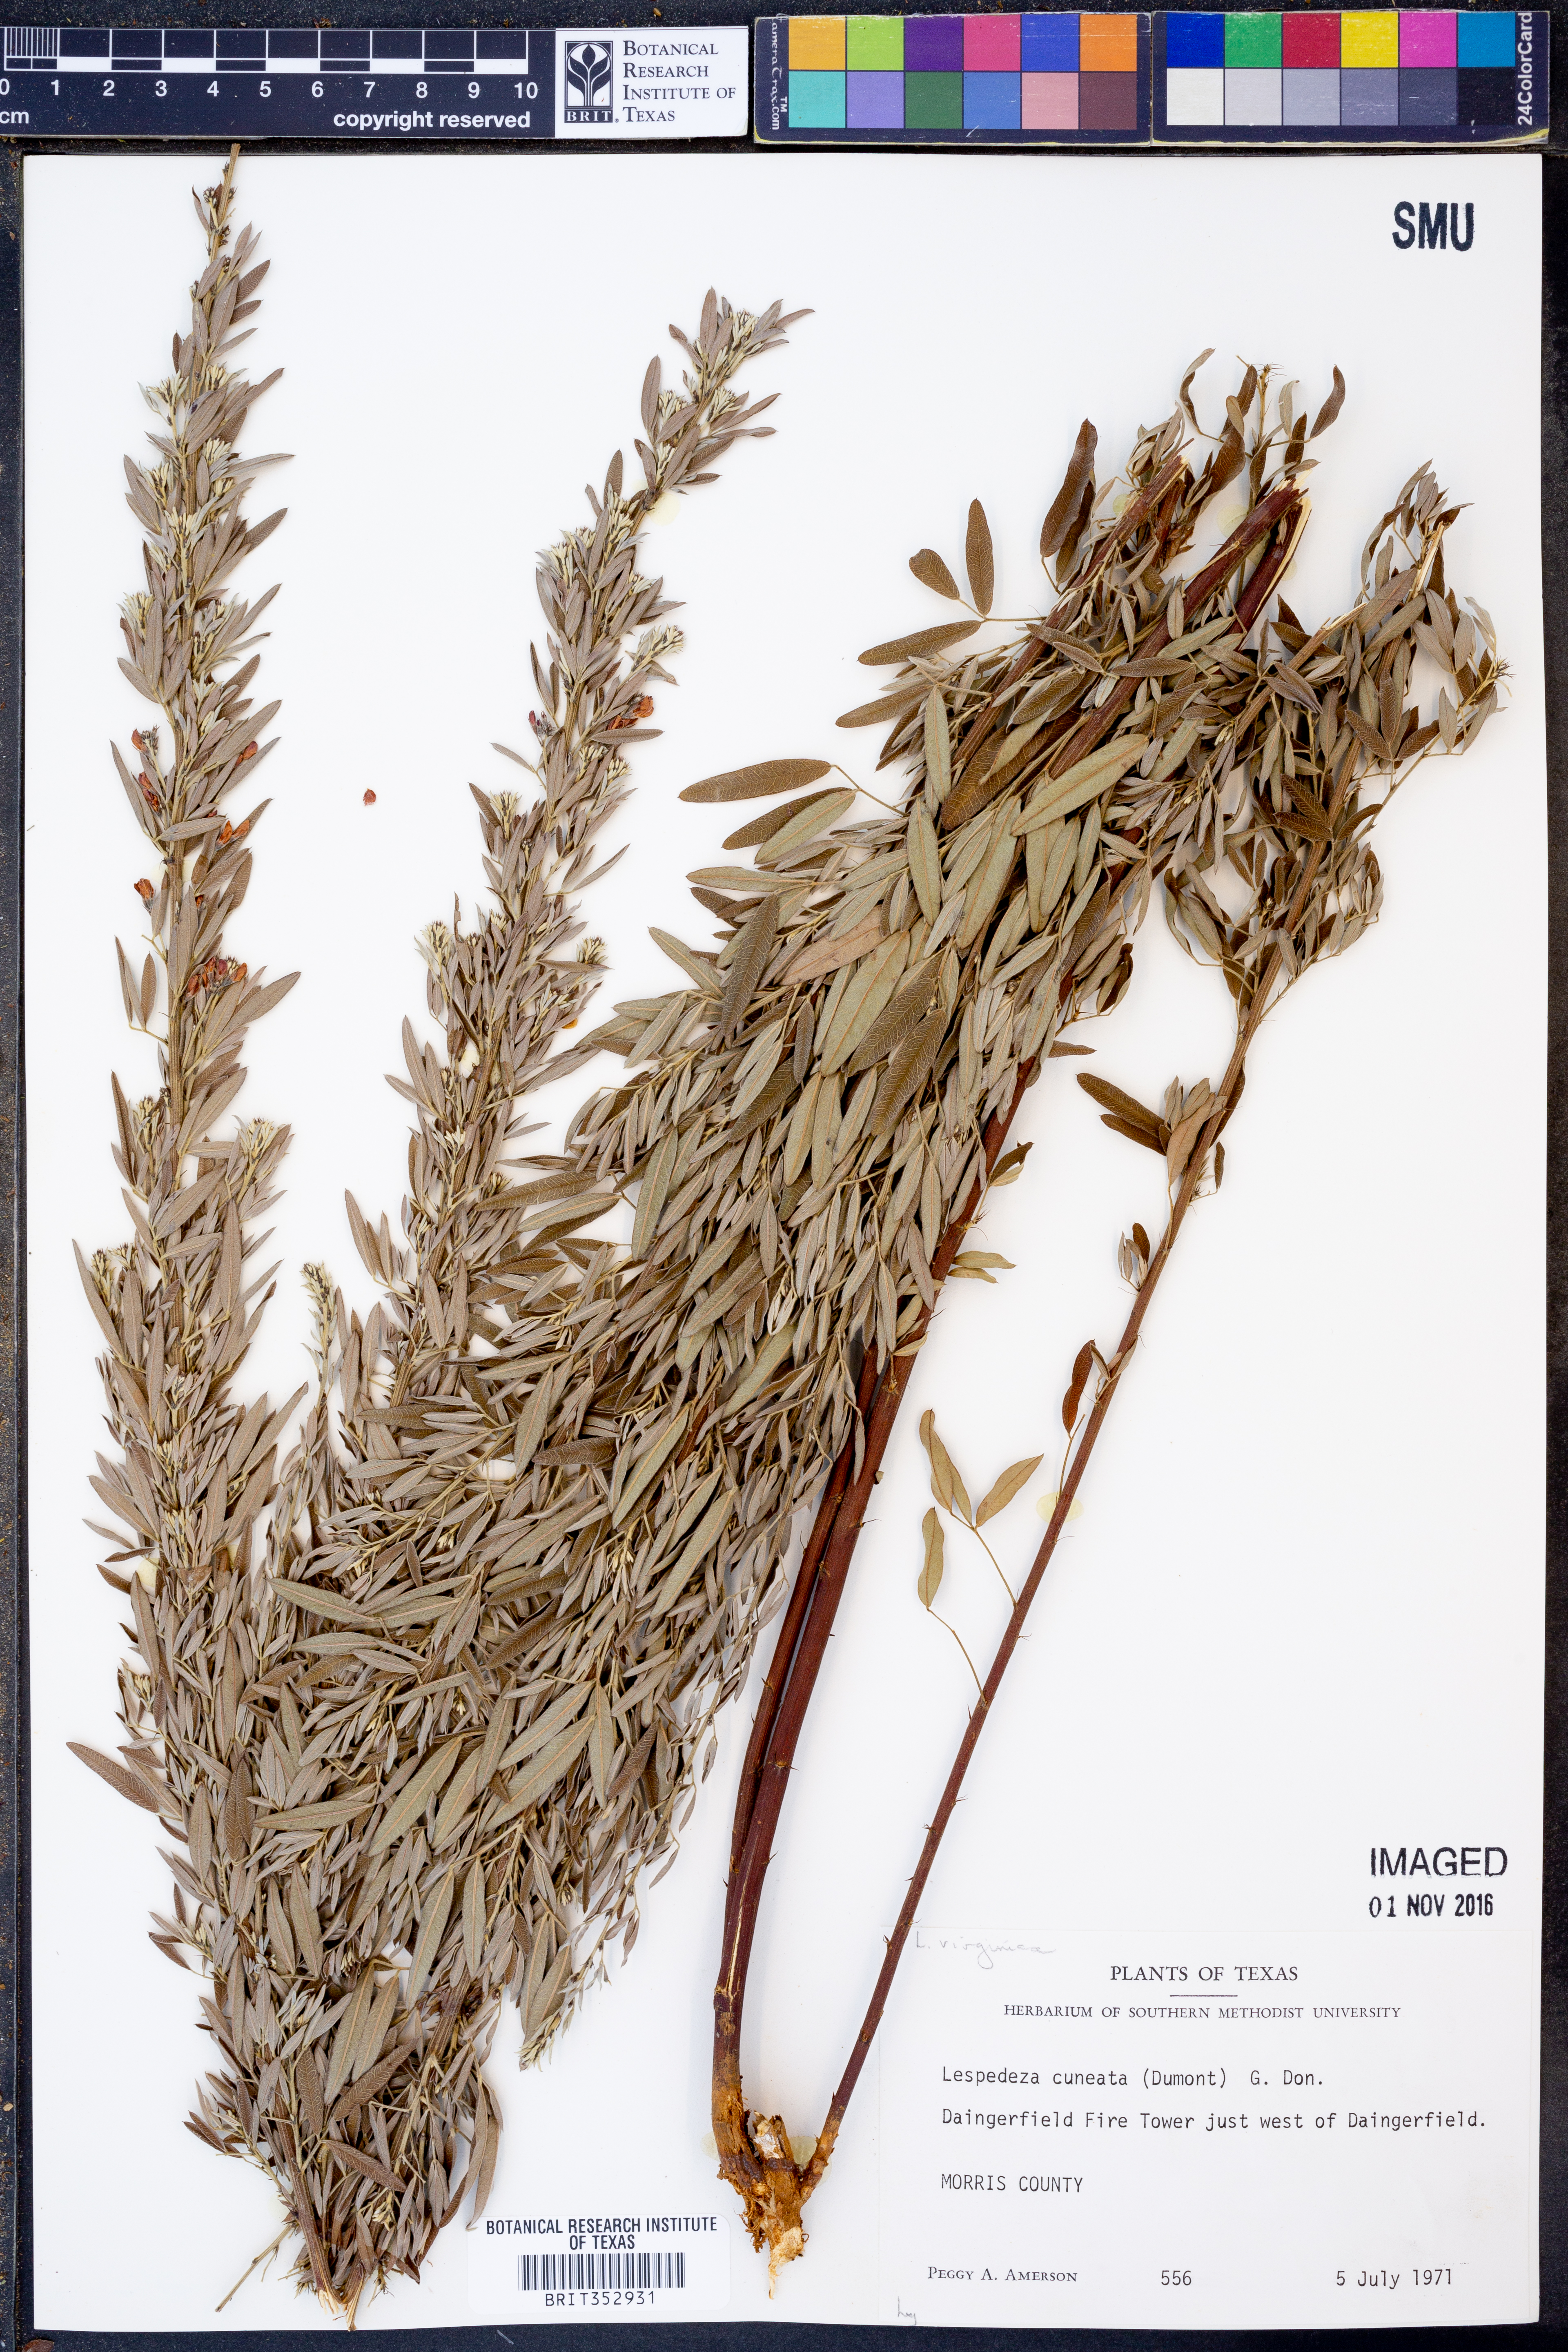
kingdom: Plantae
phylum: Tracheophyta
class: Magnoliopsida
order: Fabales
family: Fabaceae
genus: Lespedeza
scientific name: Lespedeza cuneata
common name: Chinese bush-clover
